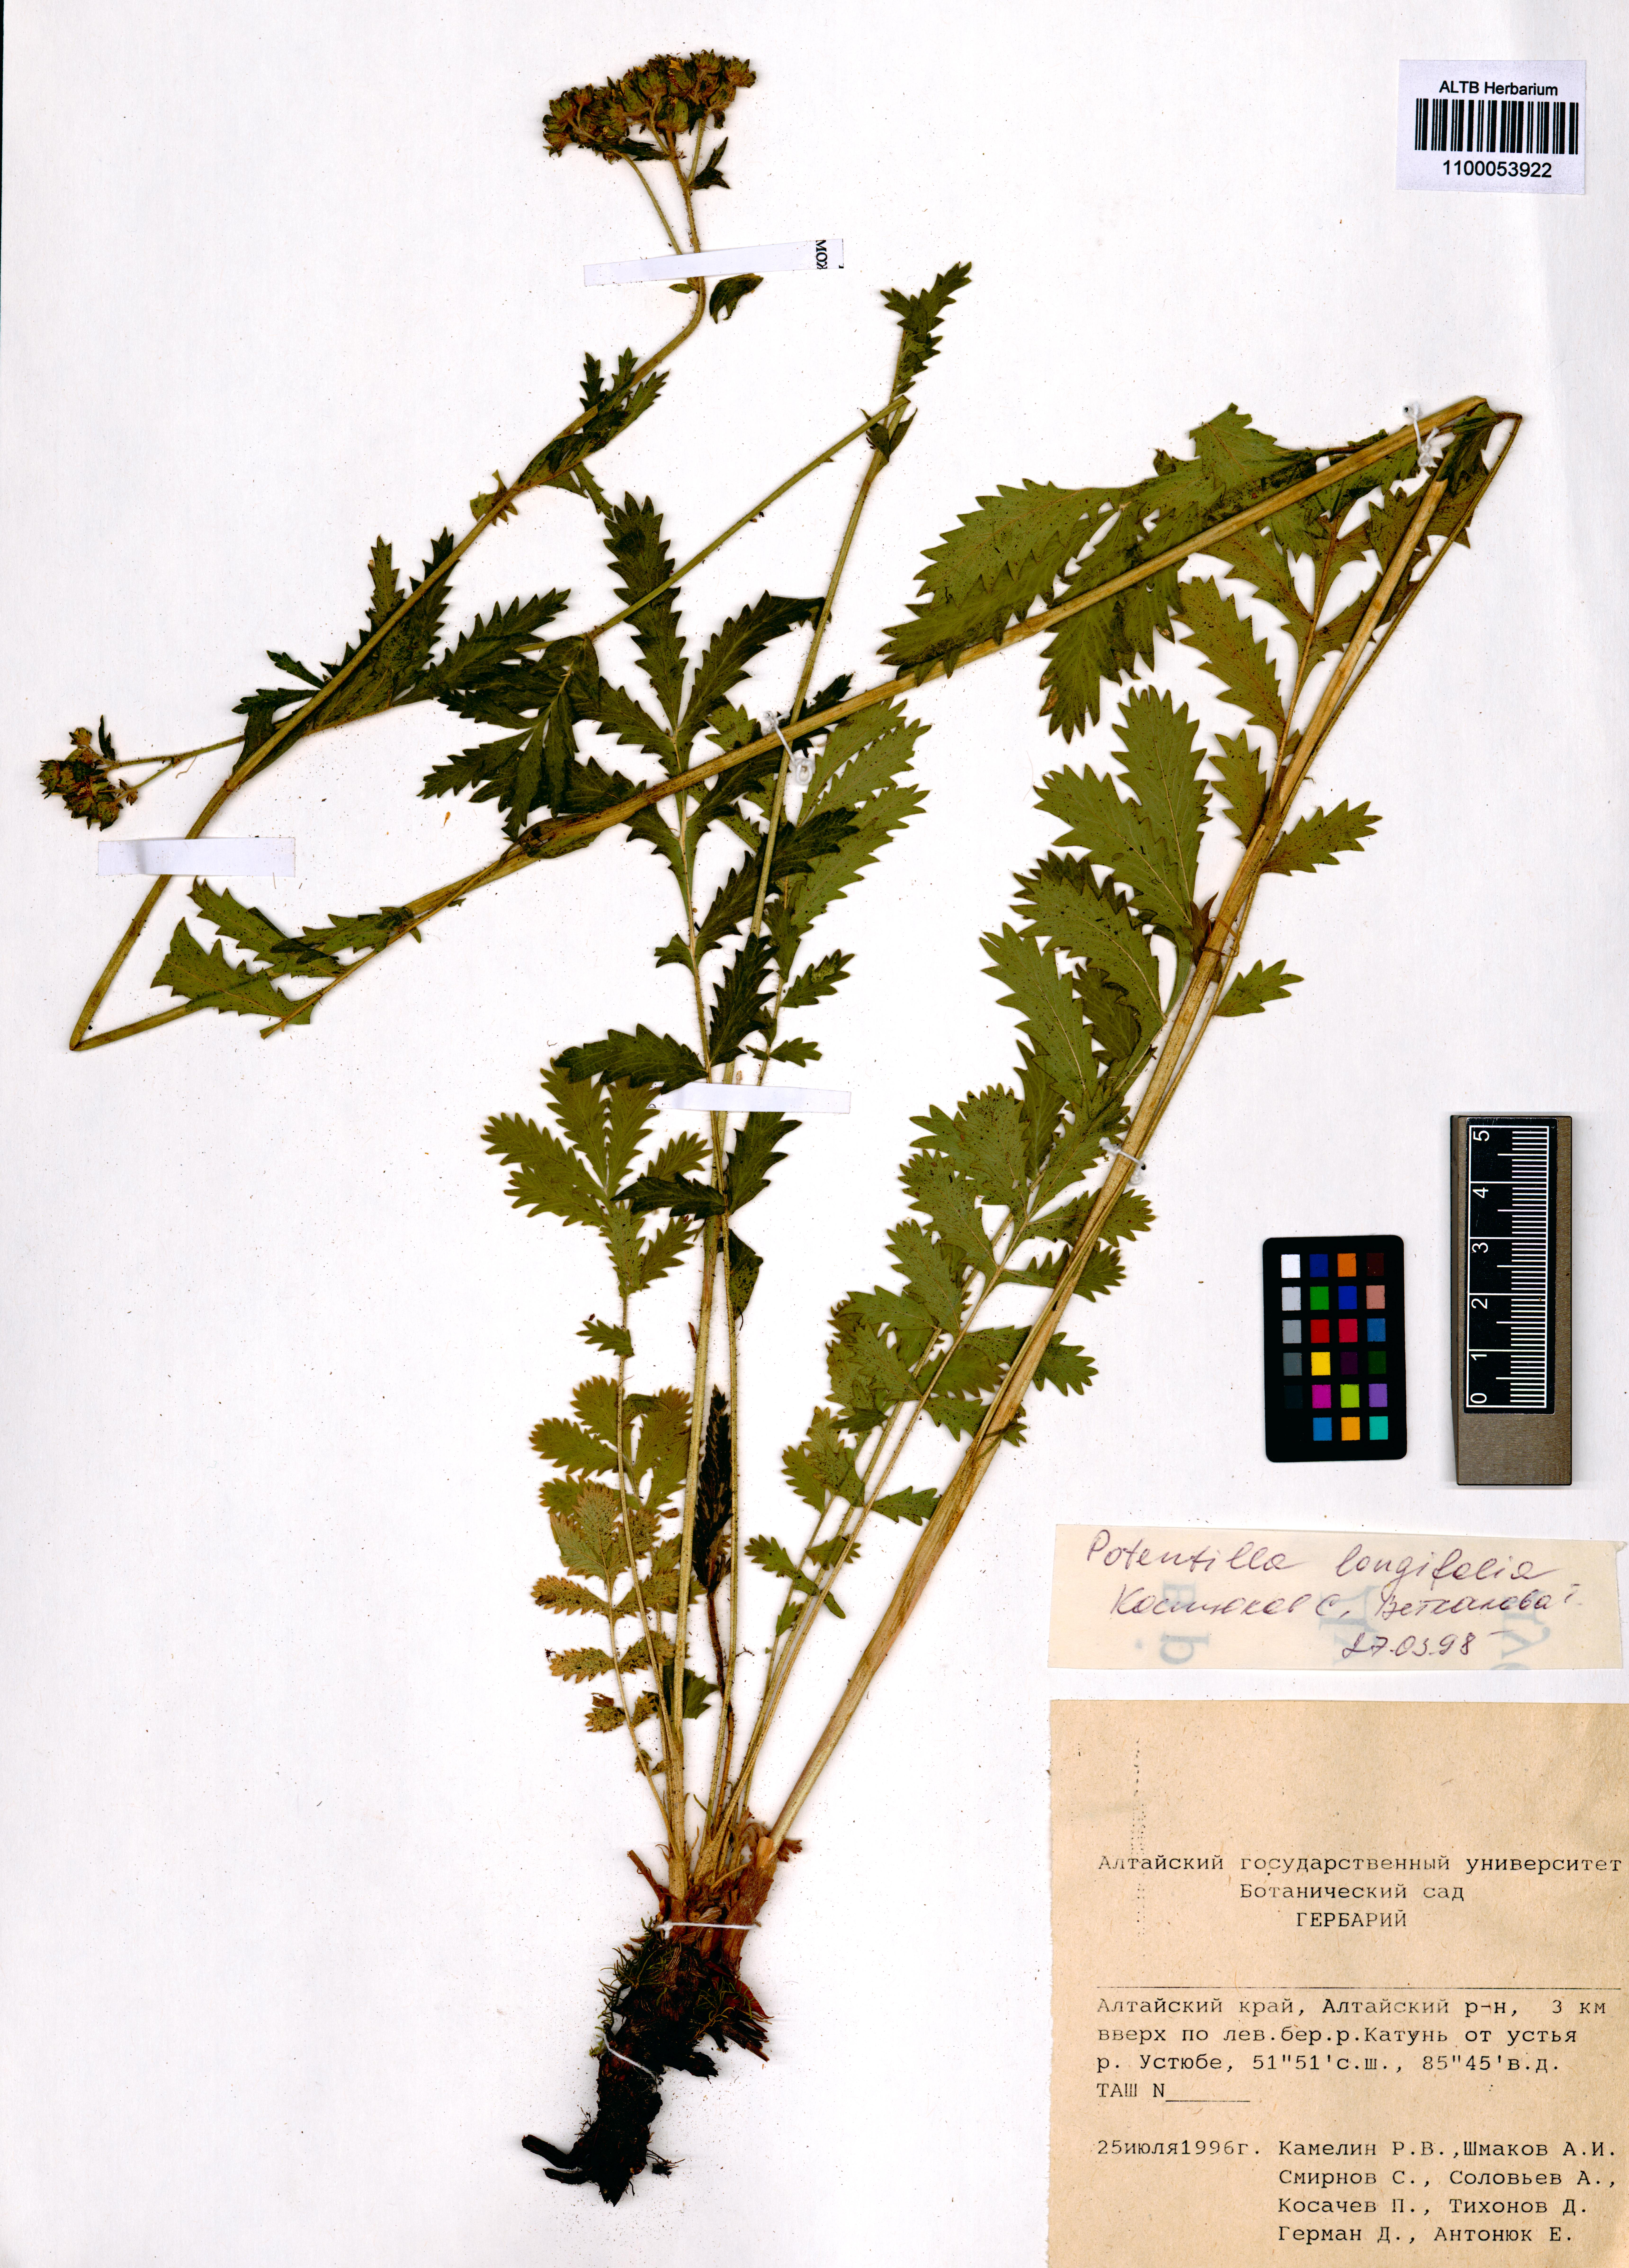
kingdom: Plantae
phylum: Tracheophyta
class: Magnoliopsida
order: Lamiales
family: Orobanchaceae
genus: Pedicularis
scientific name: Pedicularis abrotanifolia
